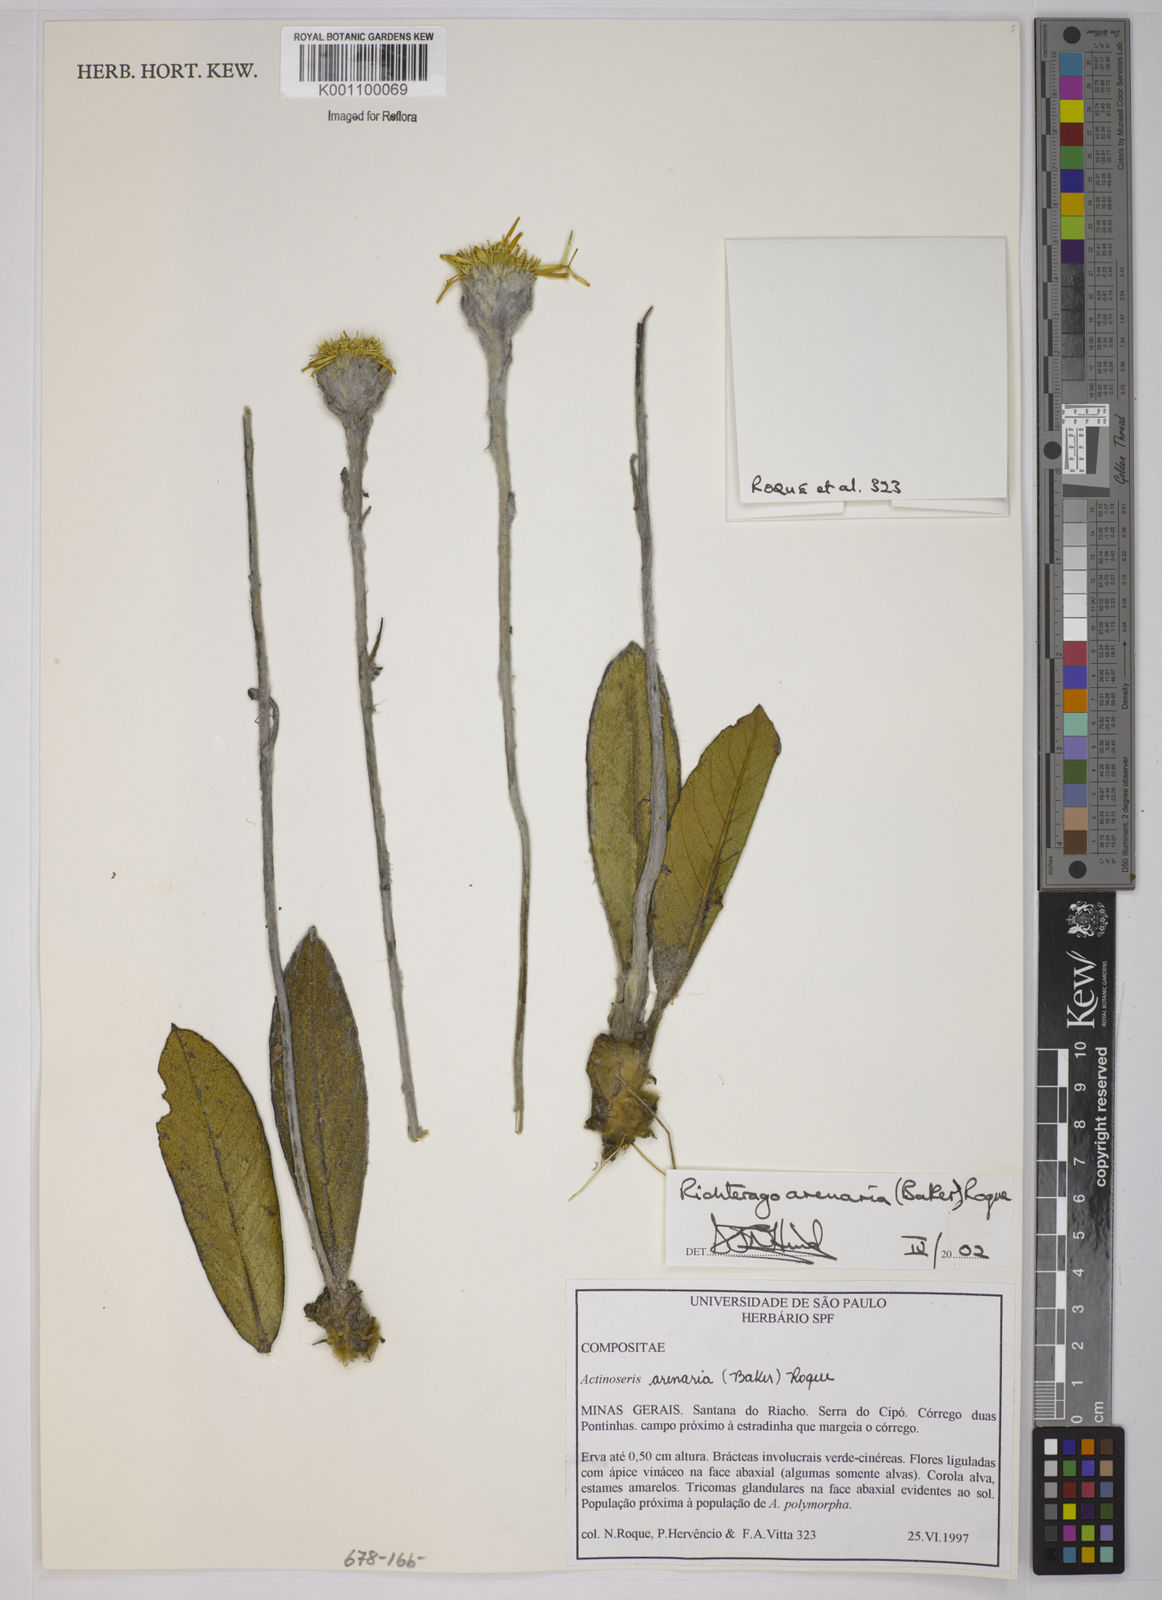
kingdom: Plantae
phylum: Tracheophyta
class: Magnoliopsida
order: Asterales
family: Asteraceae
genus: Richterago
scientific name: Richterago arenaria
